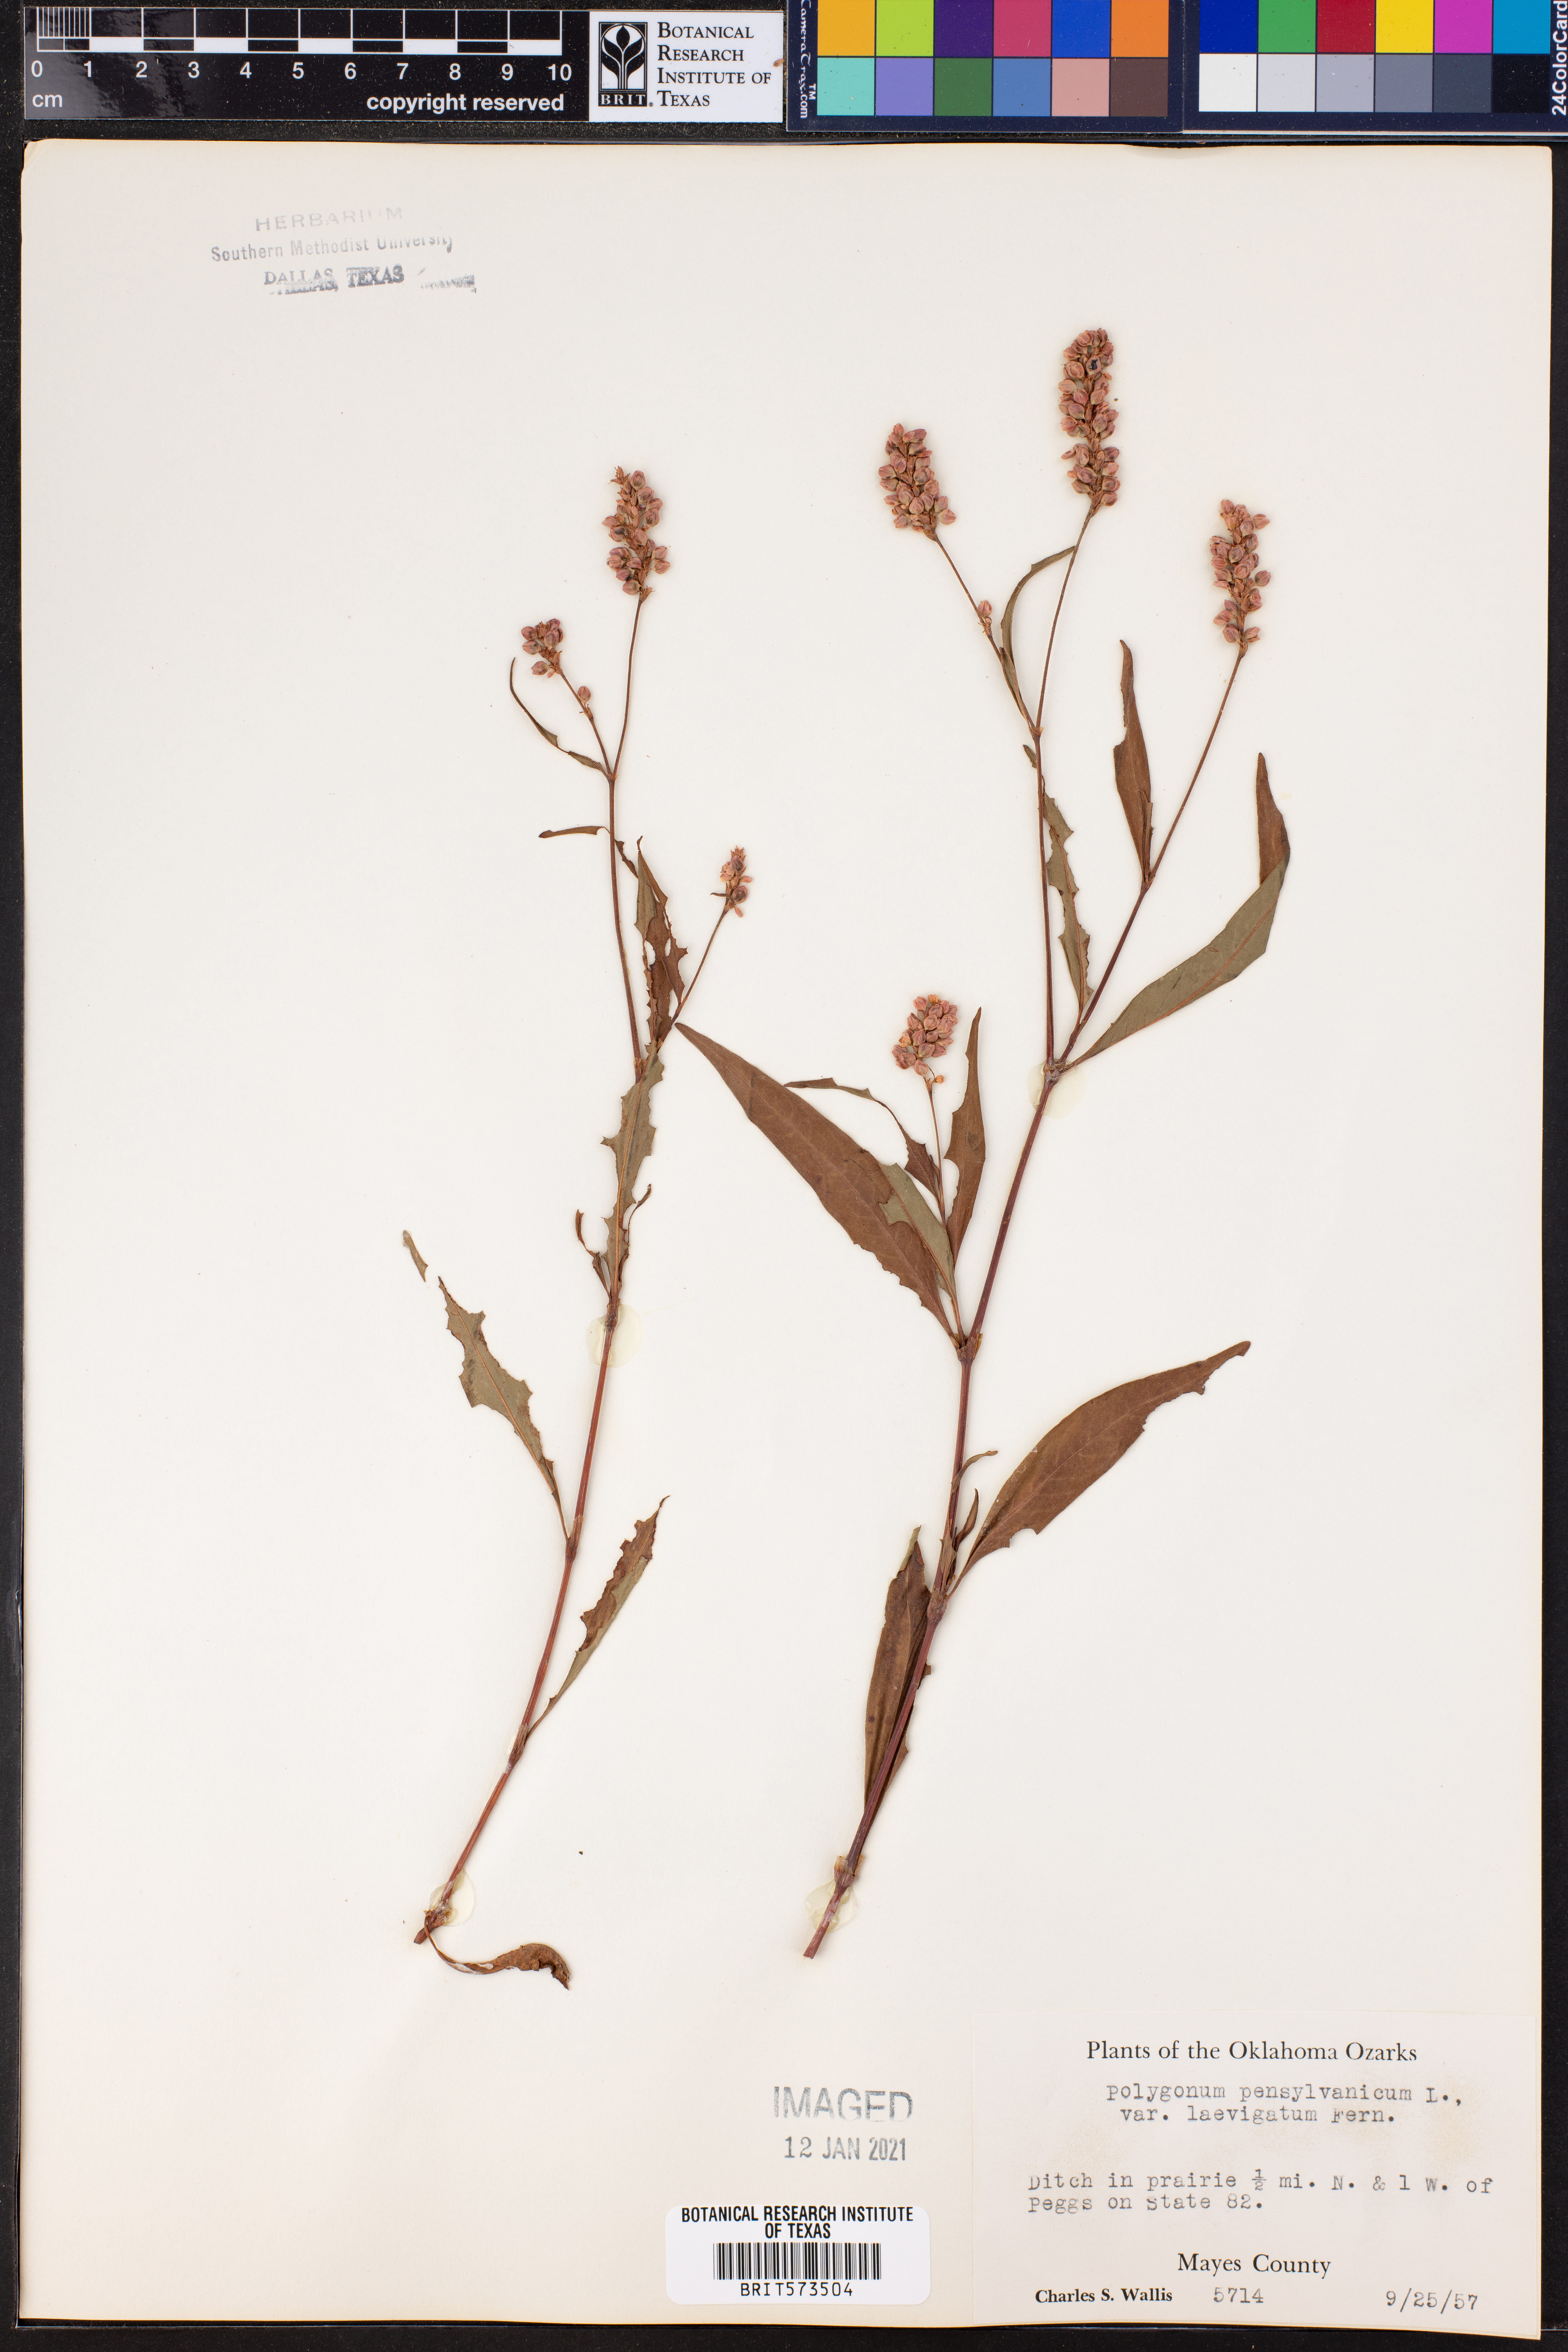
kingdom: Plantae
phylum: Tracheophyta
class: Magnoliopsida
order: Caryophyllales
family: Polygonaceae
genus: Persicaria
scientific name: Persicaria pensylvanica
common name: Pinkweed
